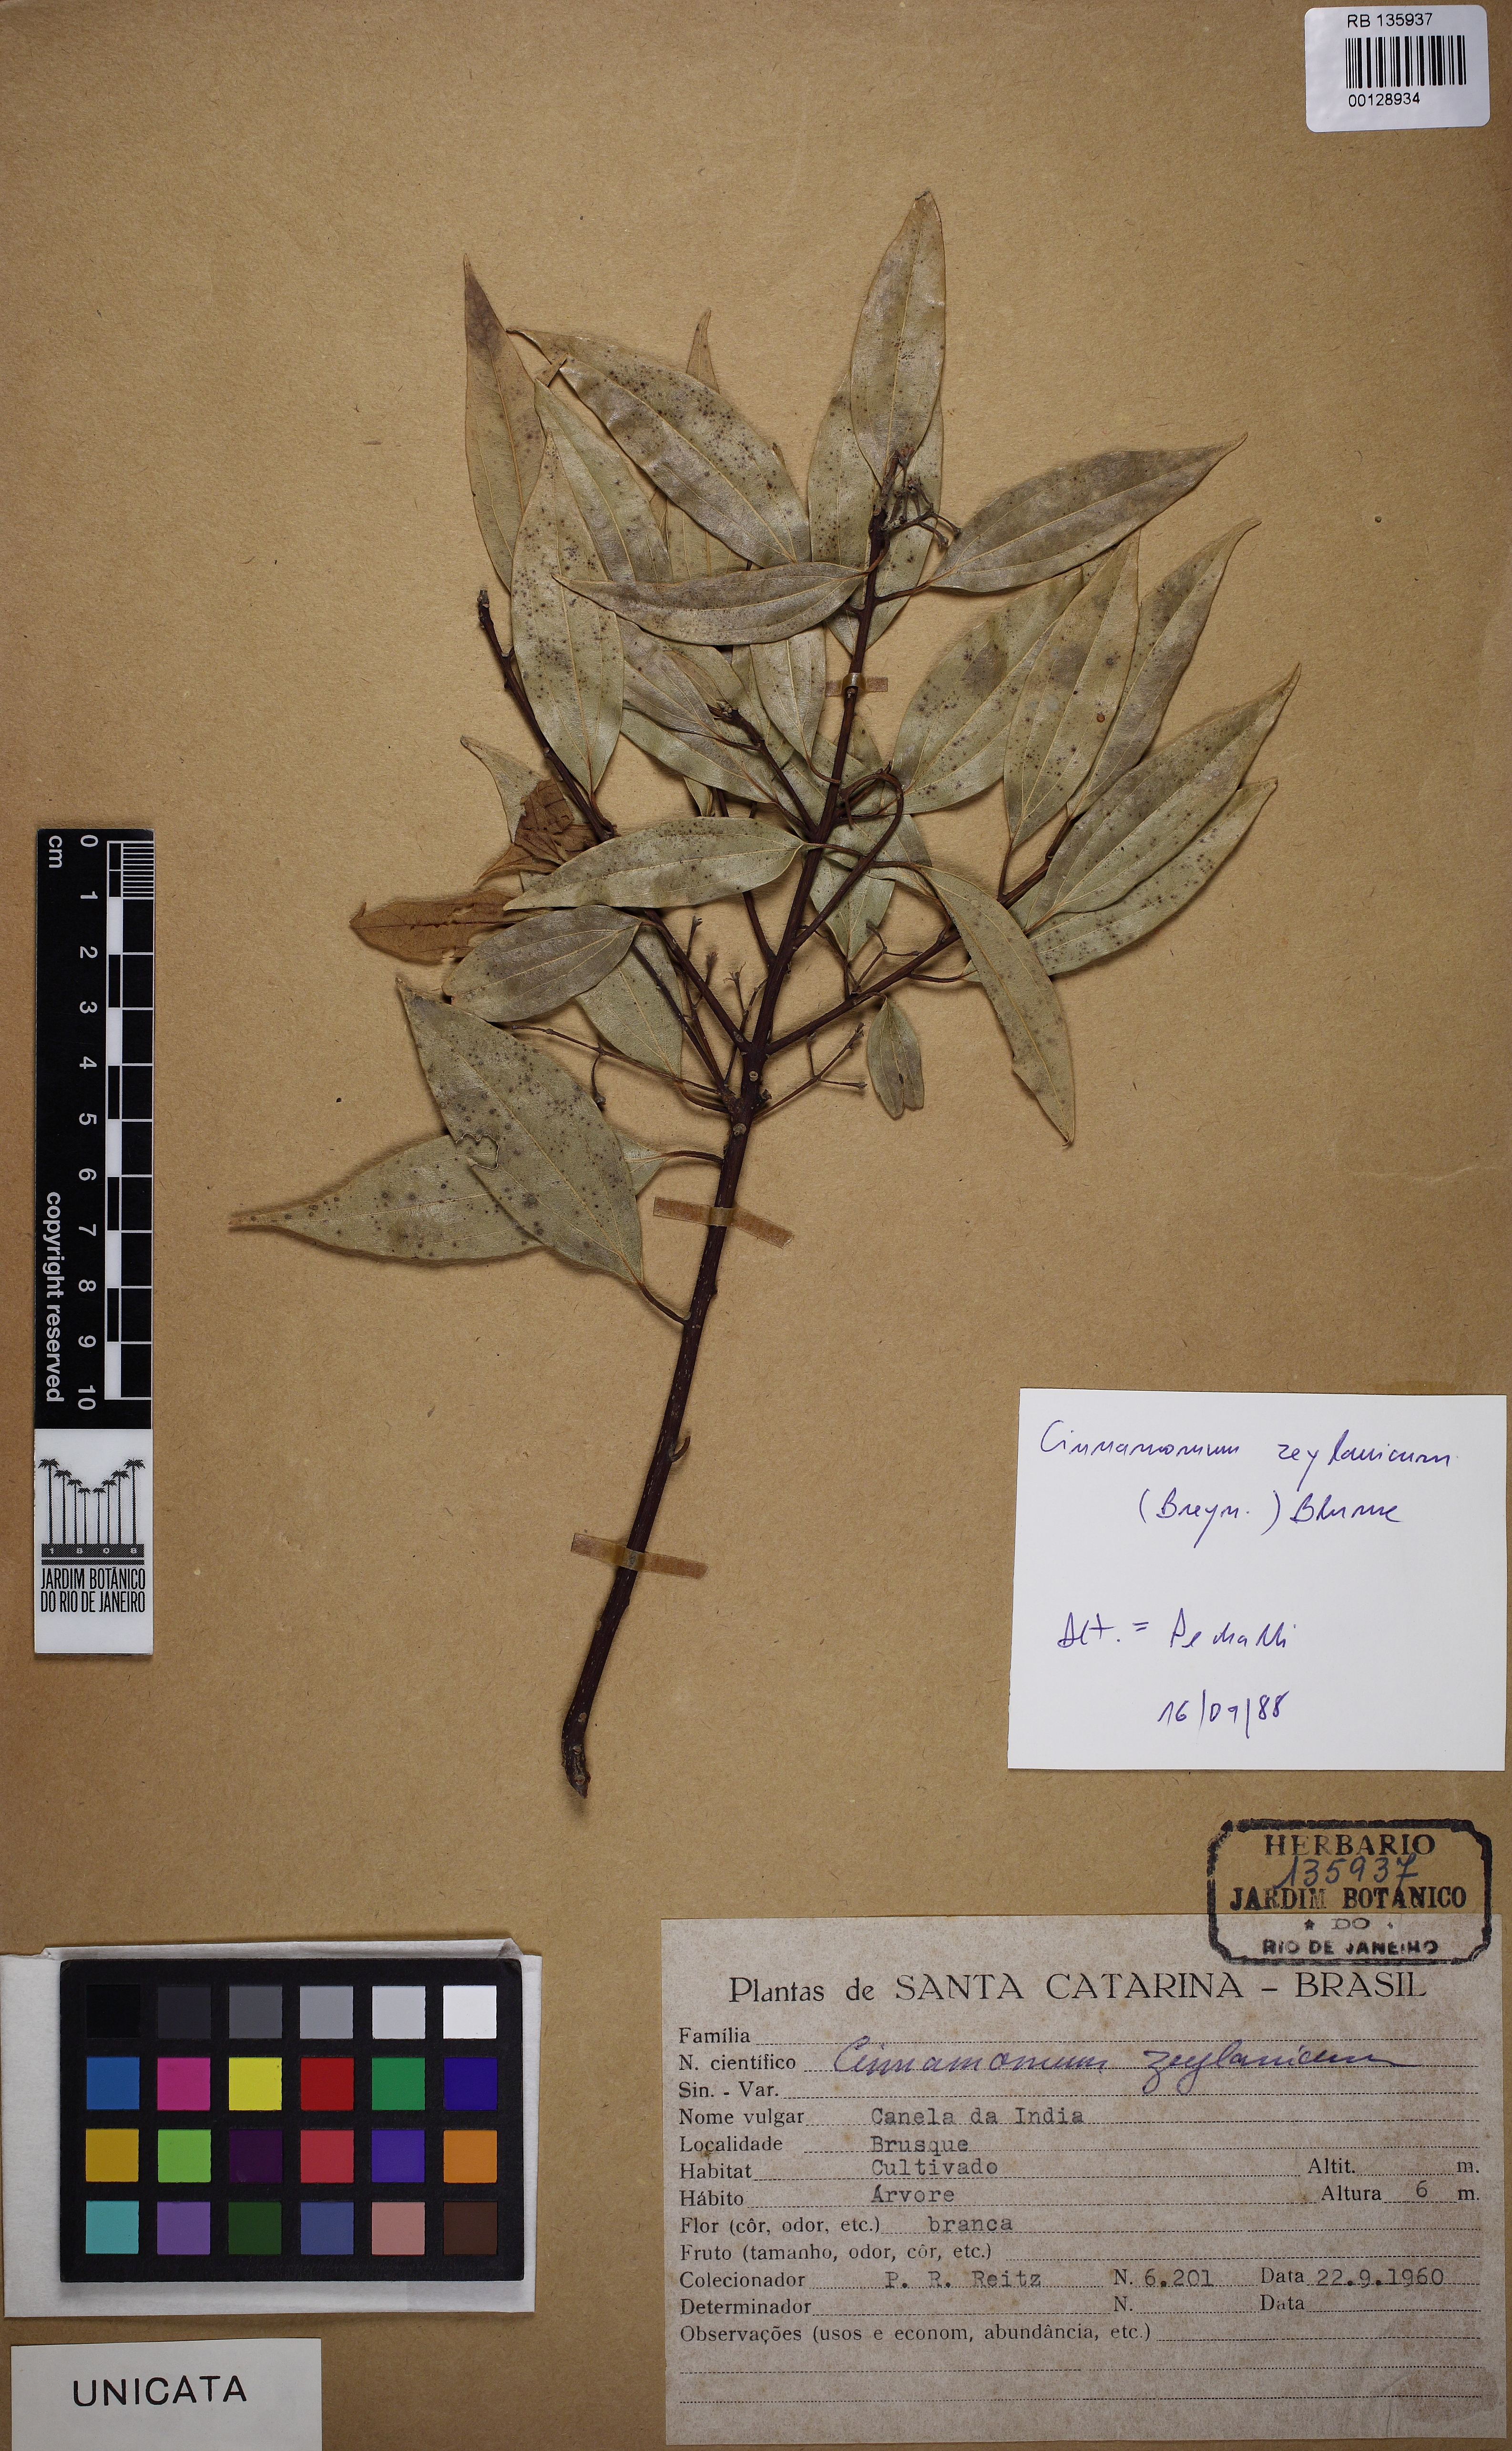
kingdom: Plantae
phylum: Tracheophyta
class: Magnoliopsida
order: Laurales
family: Lauraceae
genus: Cinnamomum
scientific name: Cinnamomum verum
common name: Cinnamon
